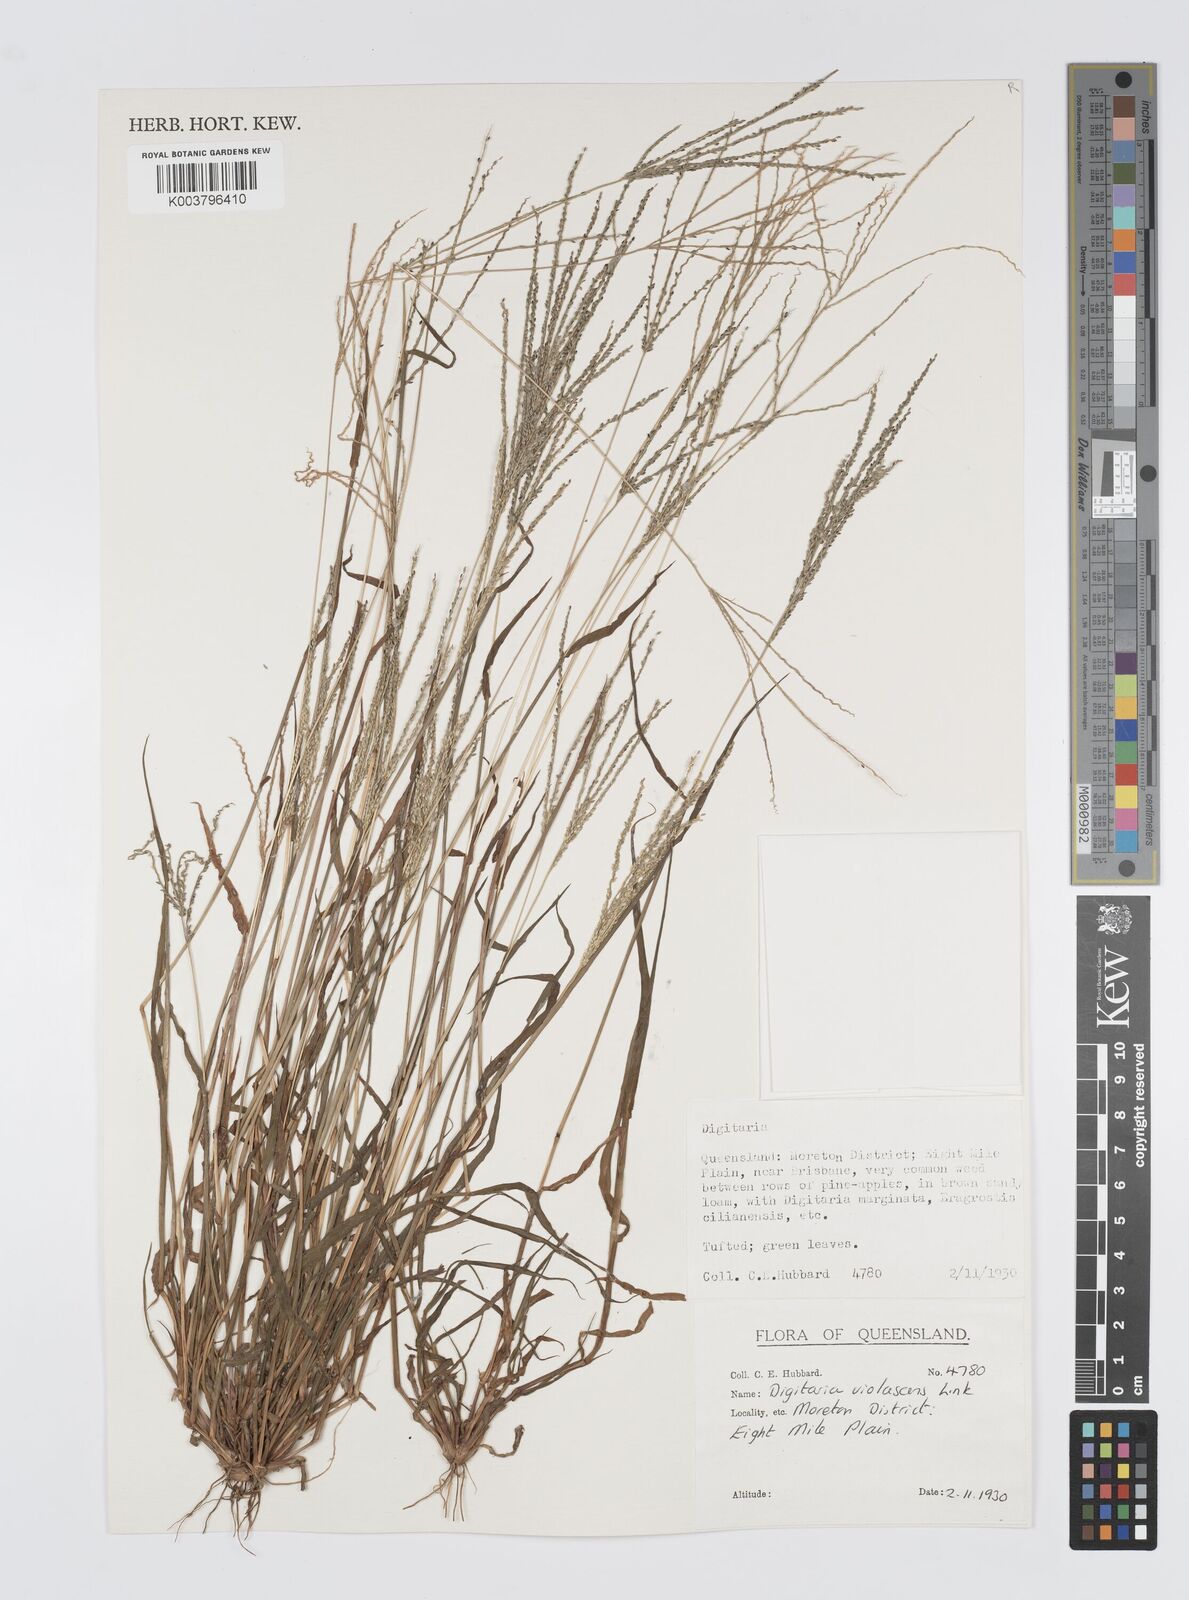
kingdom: Plantae
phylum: Tracheophyta
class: Liliopsida
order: Poales
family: Poaceae
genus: Digitaria
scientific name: Digitaria violascens
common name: Violet crabgrass
